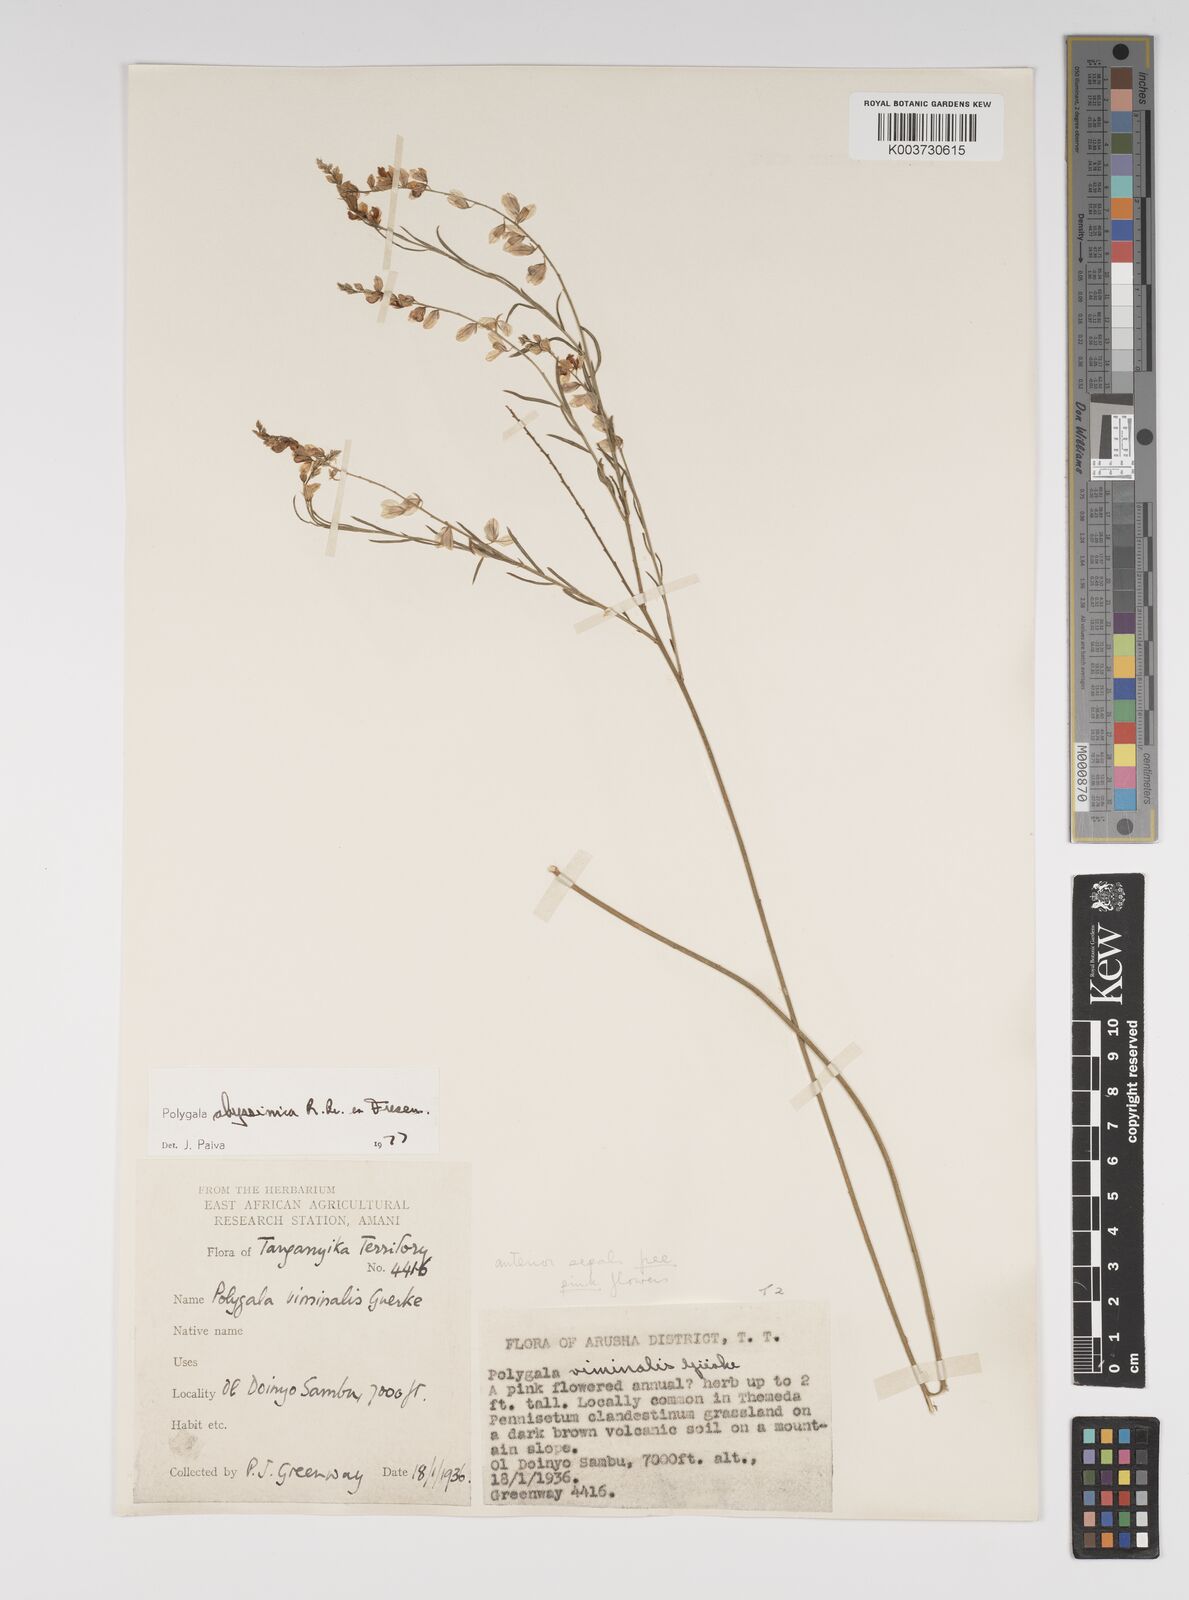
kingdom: Plantae
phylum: Tracheophyta
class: Magnoliopsida
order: Fabales
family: Polygalaceae
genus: Polygala
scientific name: Polygala abyssinica
